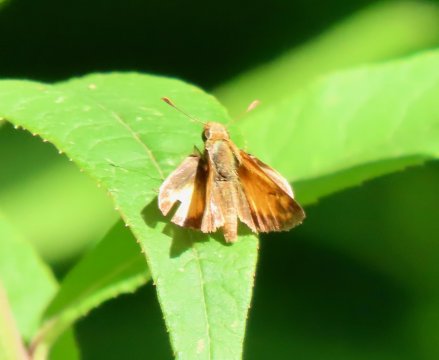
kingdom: Animalia
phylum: Arthropoda
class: Insecta
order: Lepidoptera
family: Hesperiidae
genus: Lon
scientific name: Lon zabulon
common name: Zabulon Skipper
